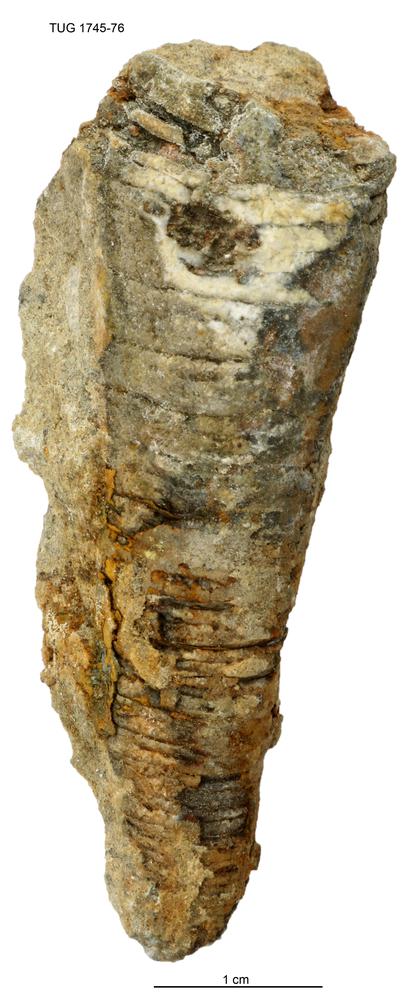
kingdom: Animalia
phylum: Mollusca
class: Cephalopoda
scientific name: Cephalopoda
